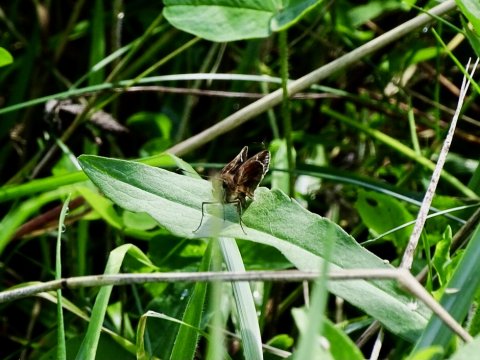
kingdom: Animalia
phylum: Arthropoda
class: Insecta
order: Lepidoptera
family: Hesperiidae
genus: Lerema
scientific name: Lerema accius
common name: Clouded Skipper
